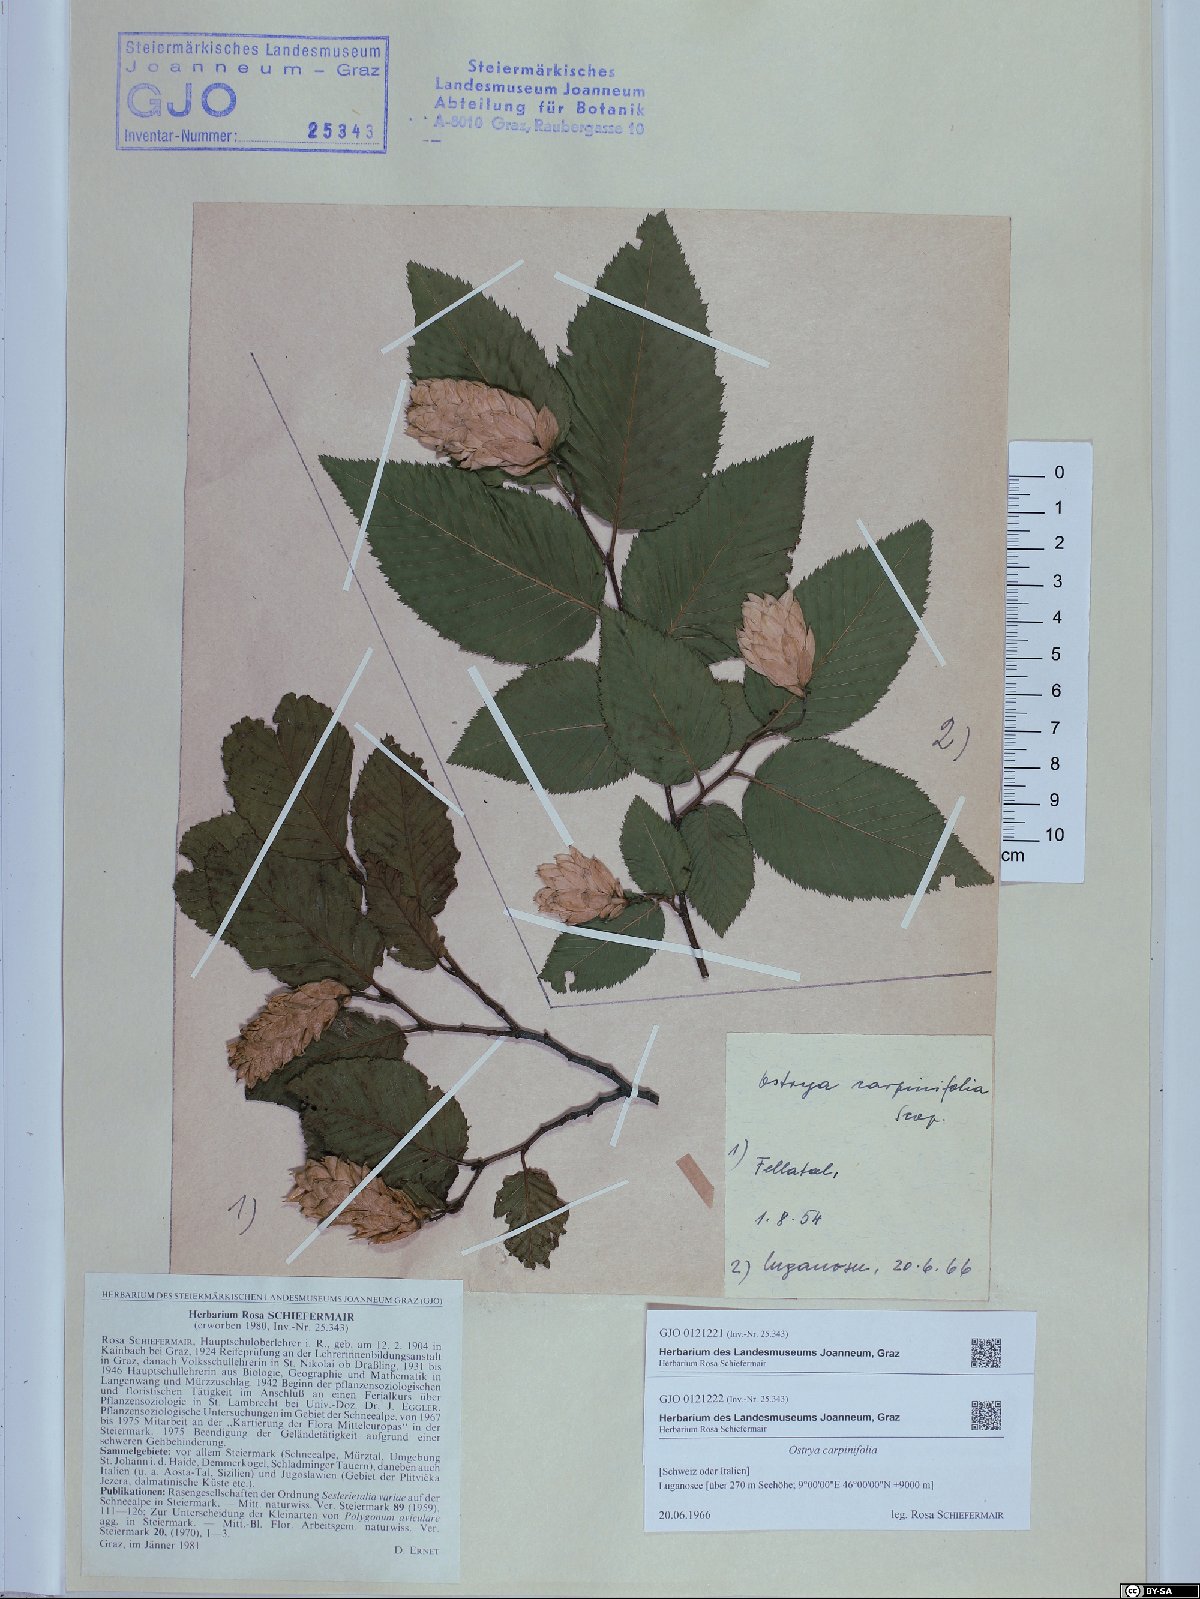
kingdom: Plantae
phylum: Tracheophyta
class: Magnoliopsida
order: Fagales
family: Betulaceae
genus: Ostrya
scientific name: Ostrya carpinifolia
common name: European hop-hornbeam
